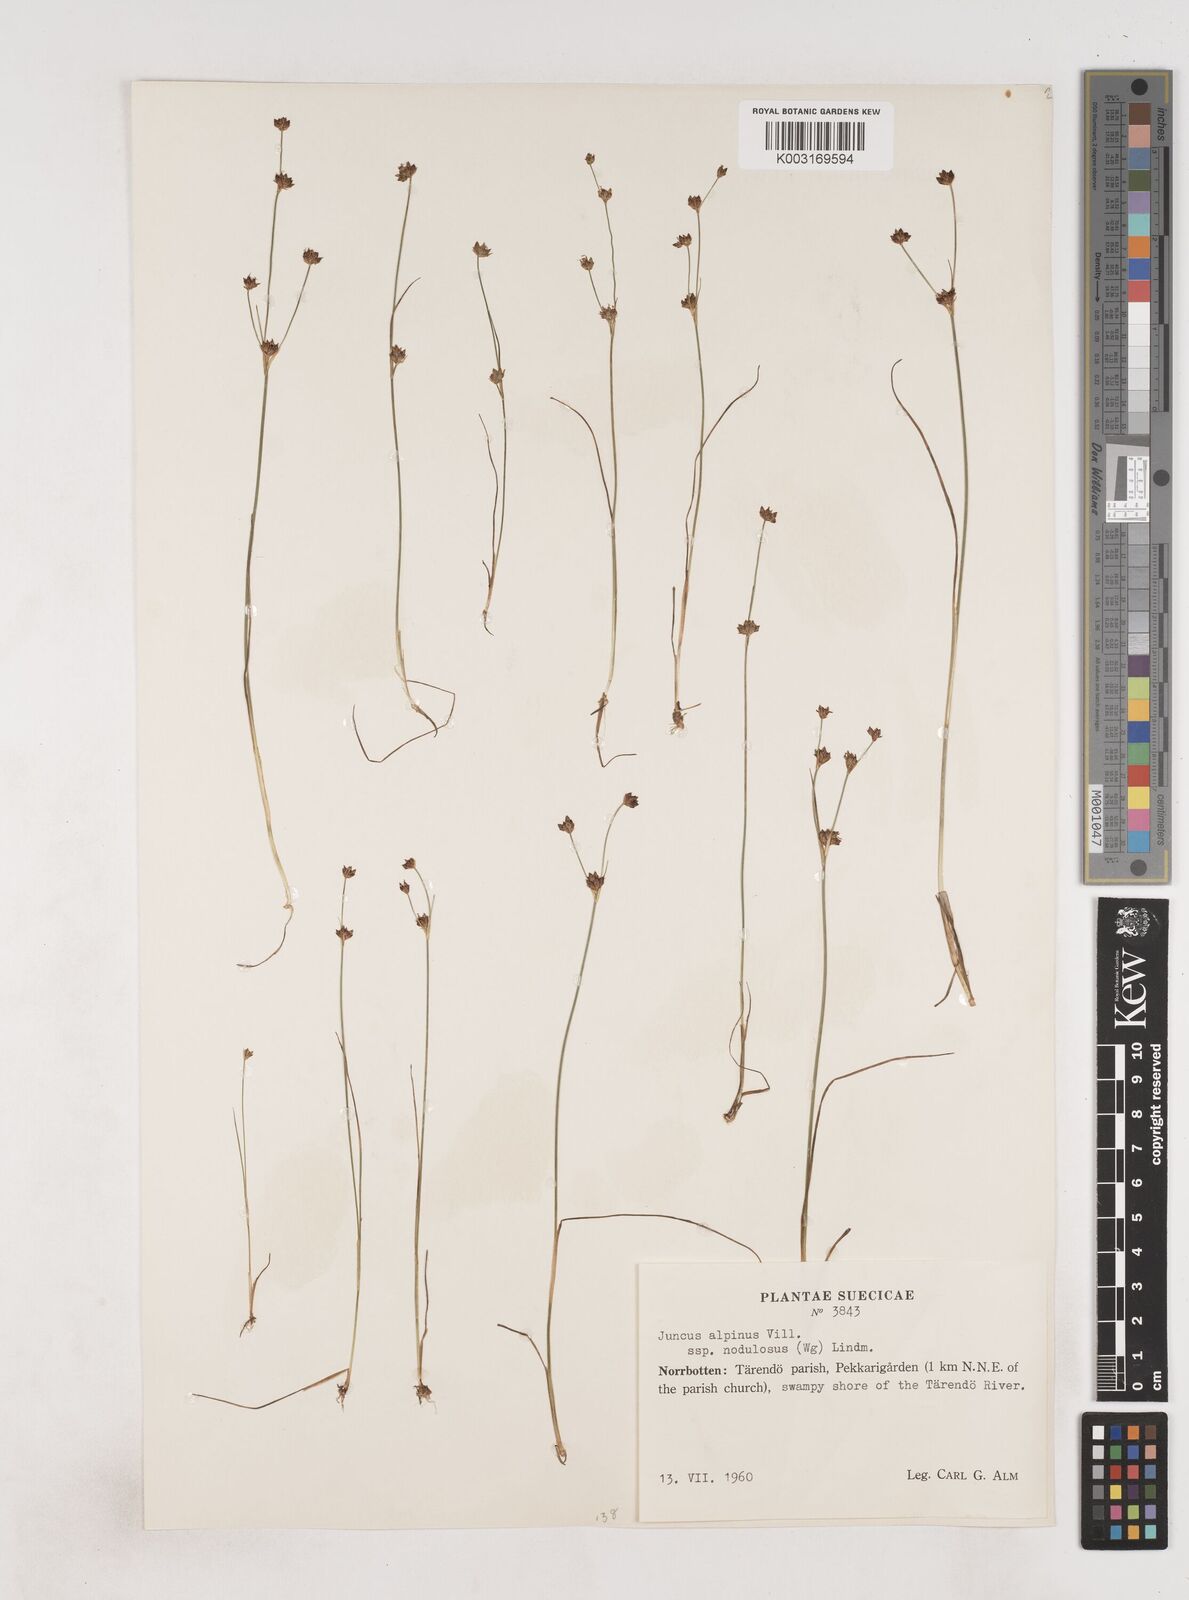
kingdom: Plantae
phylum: Tracheophyta
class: Liliopsida
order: Poales
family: Juncaceae
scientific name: Juncaceae
